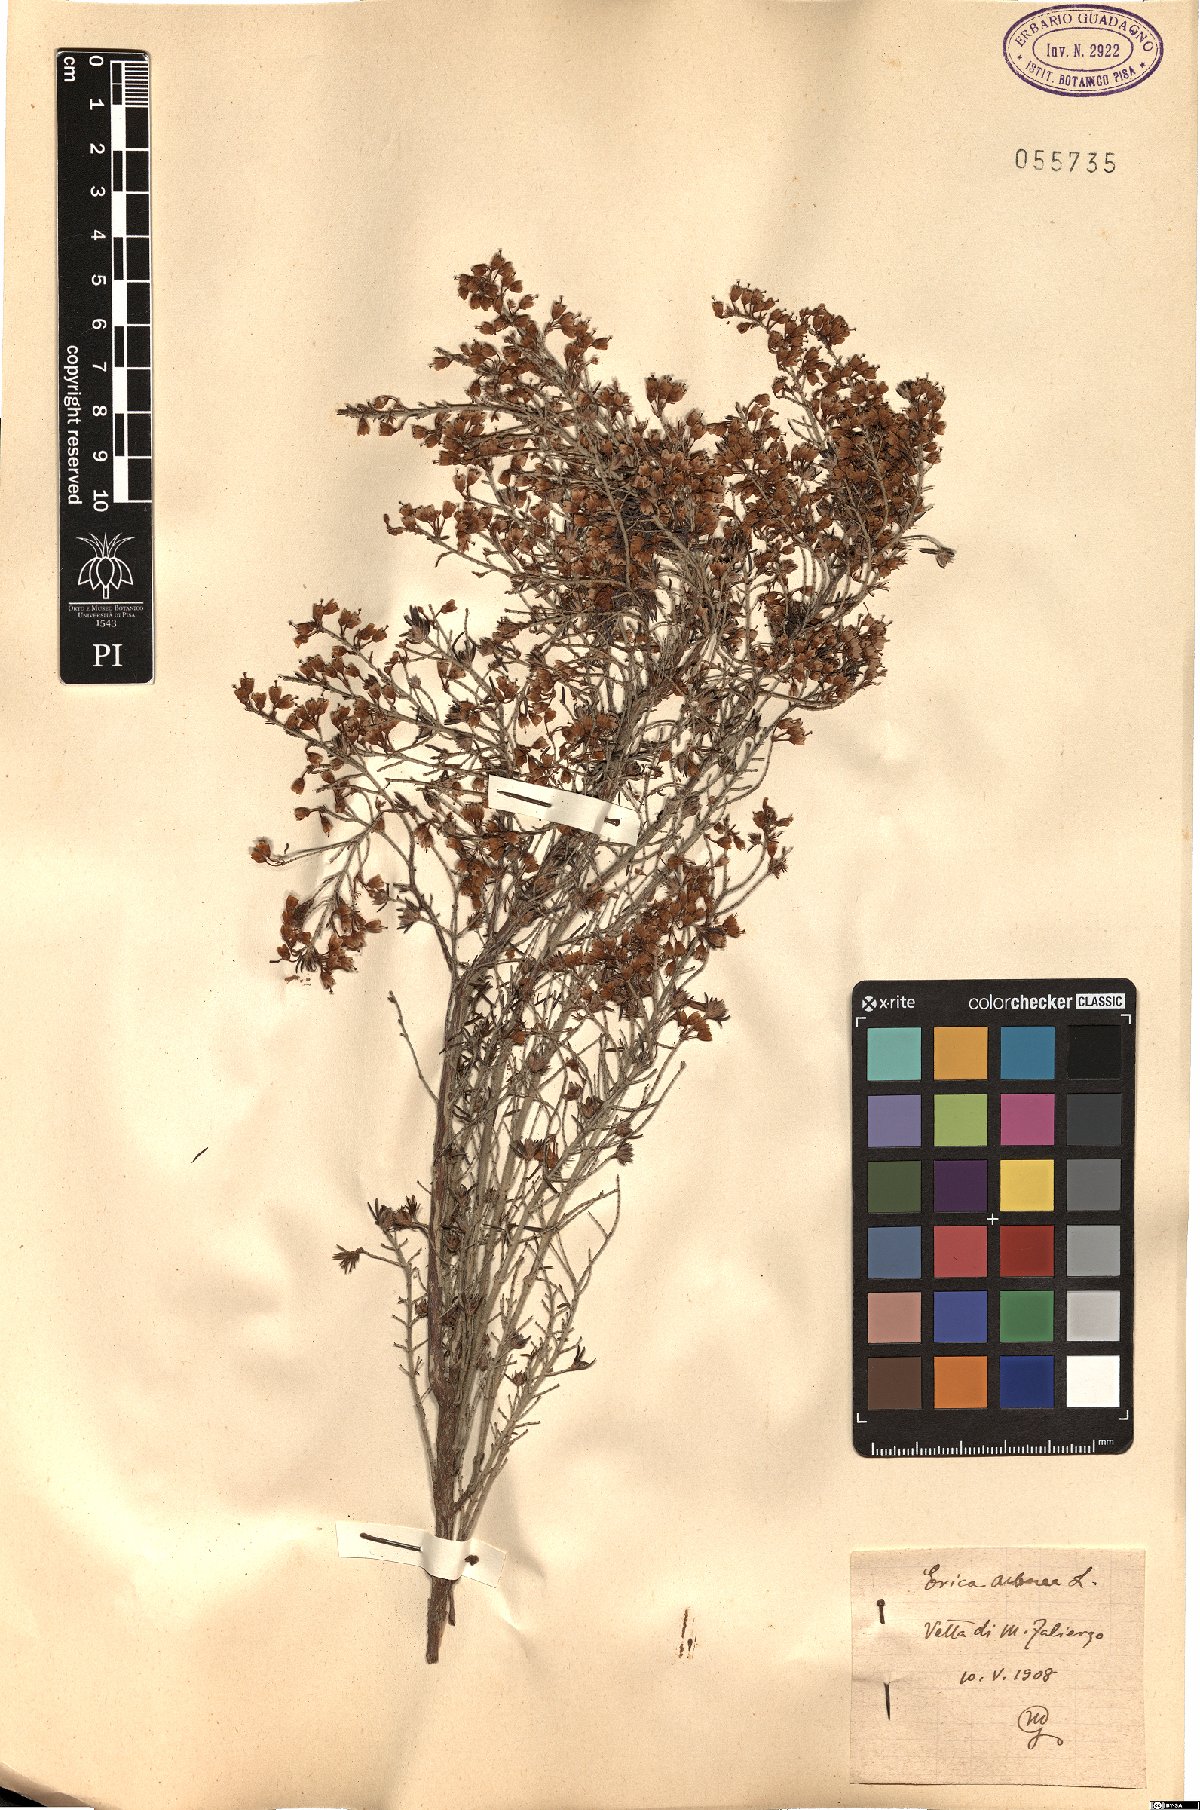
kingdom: Plantae
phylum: Tracheophyta
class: Magnoliopsida
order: Ericales
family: Ericaceae
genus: Erica
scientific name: Erica arborea
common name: Tree heath
